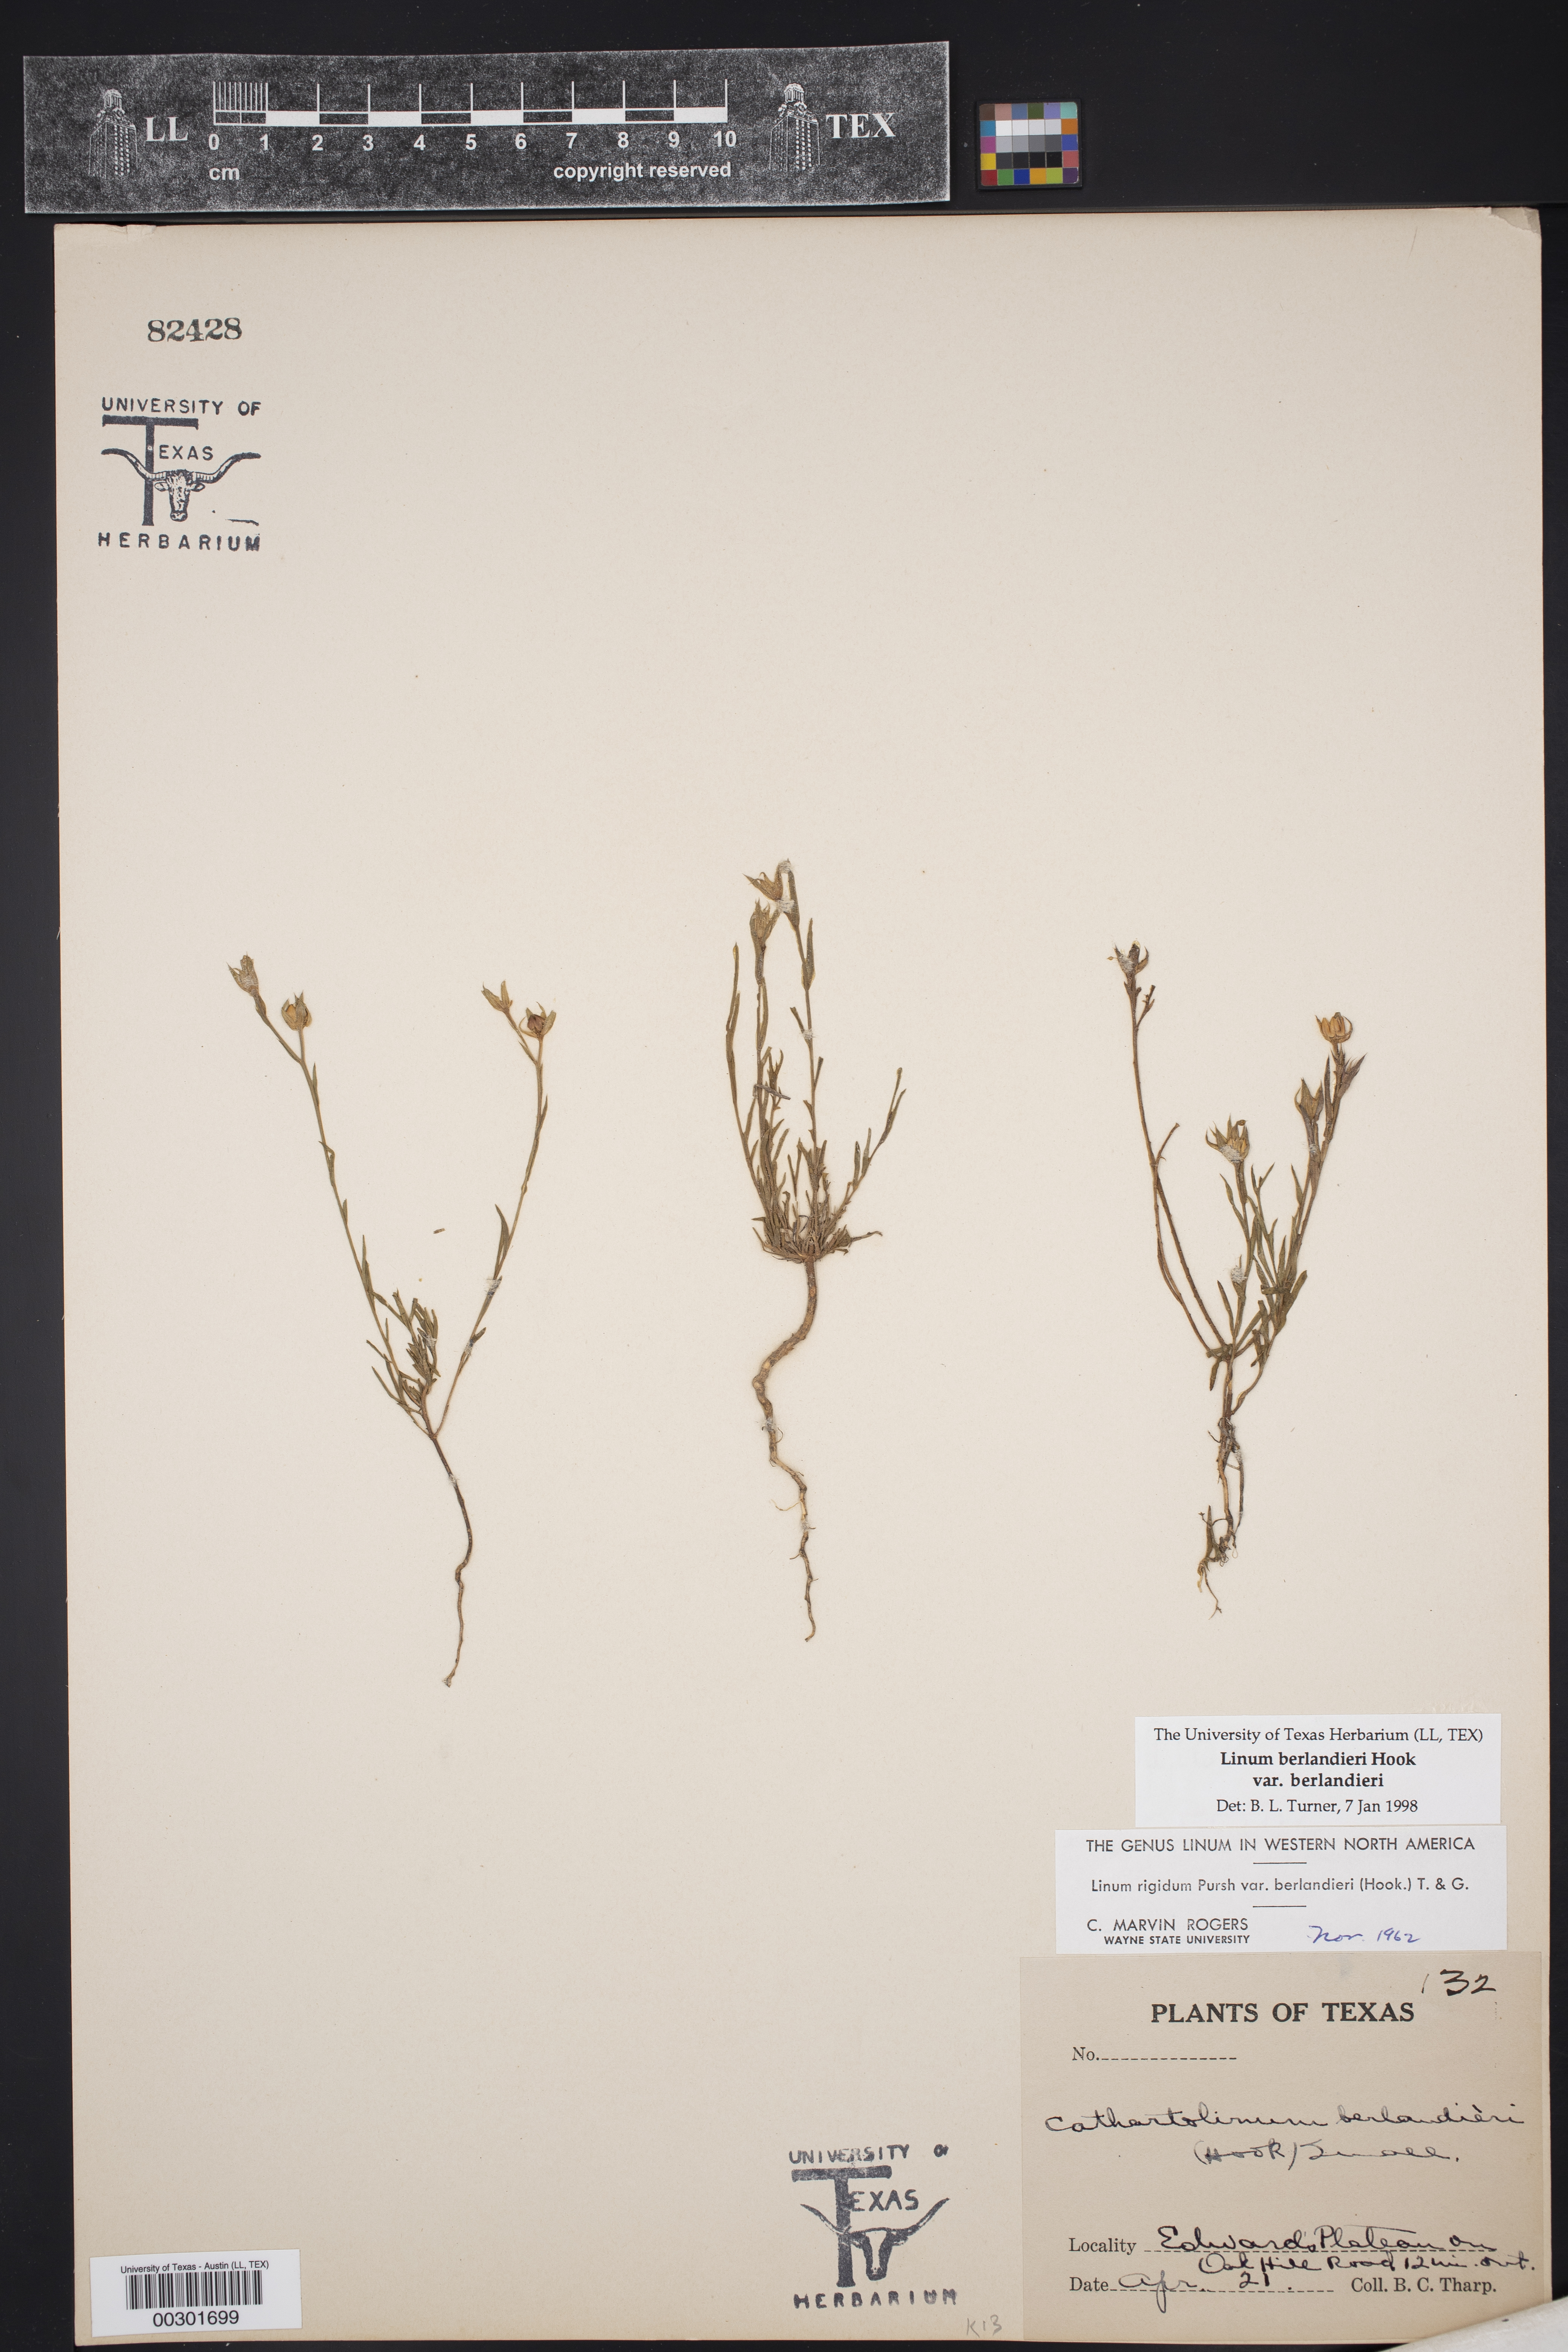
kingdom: Plantae
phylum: Tracheophyta
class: Magnoliopsida
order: Malpighiales
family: Linaceae
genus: Linum
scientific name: Linum berlandieri
